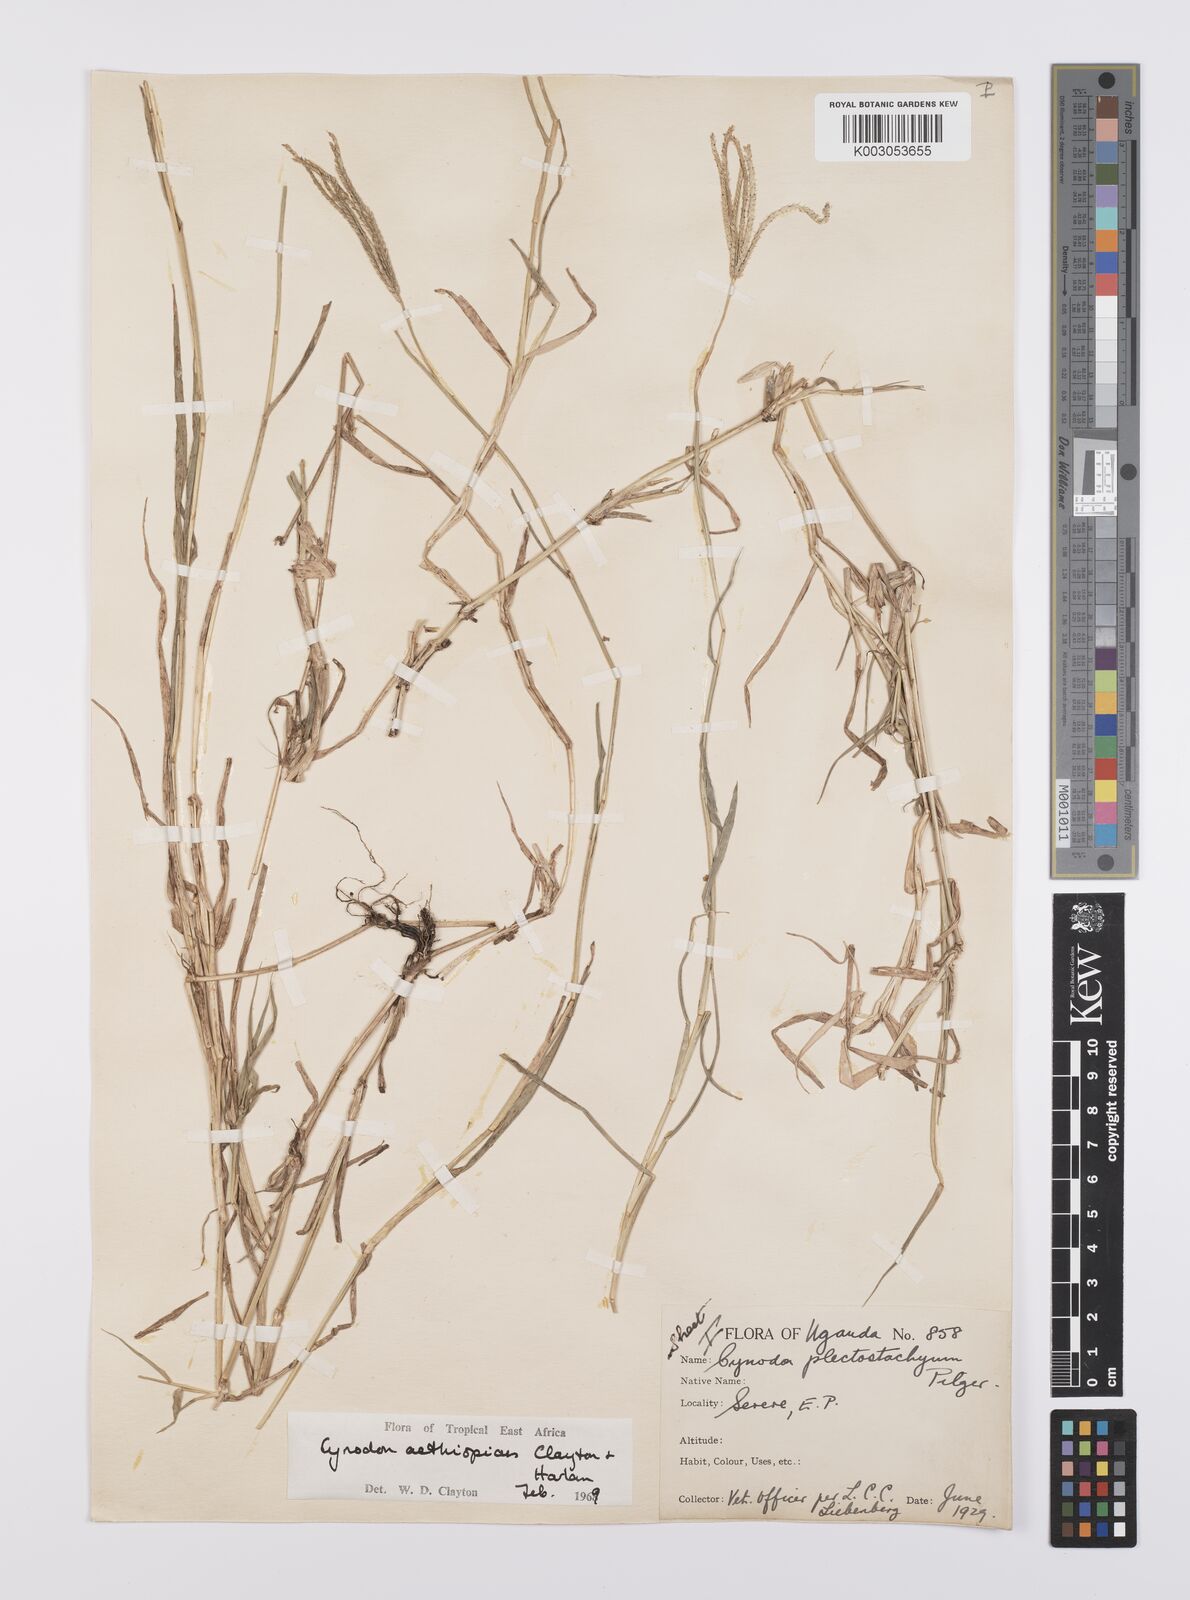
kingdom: Plantae
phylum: Tracheophyta
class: Liliopsida
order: Poales
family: Poaceae
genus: Cynodon
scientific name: Cynodon aethiopicus
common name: Ethiopian dogstooth grass
